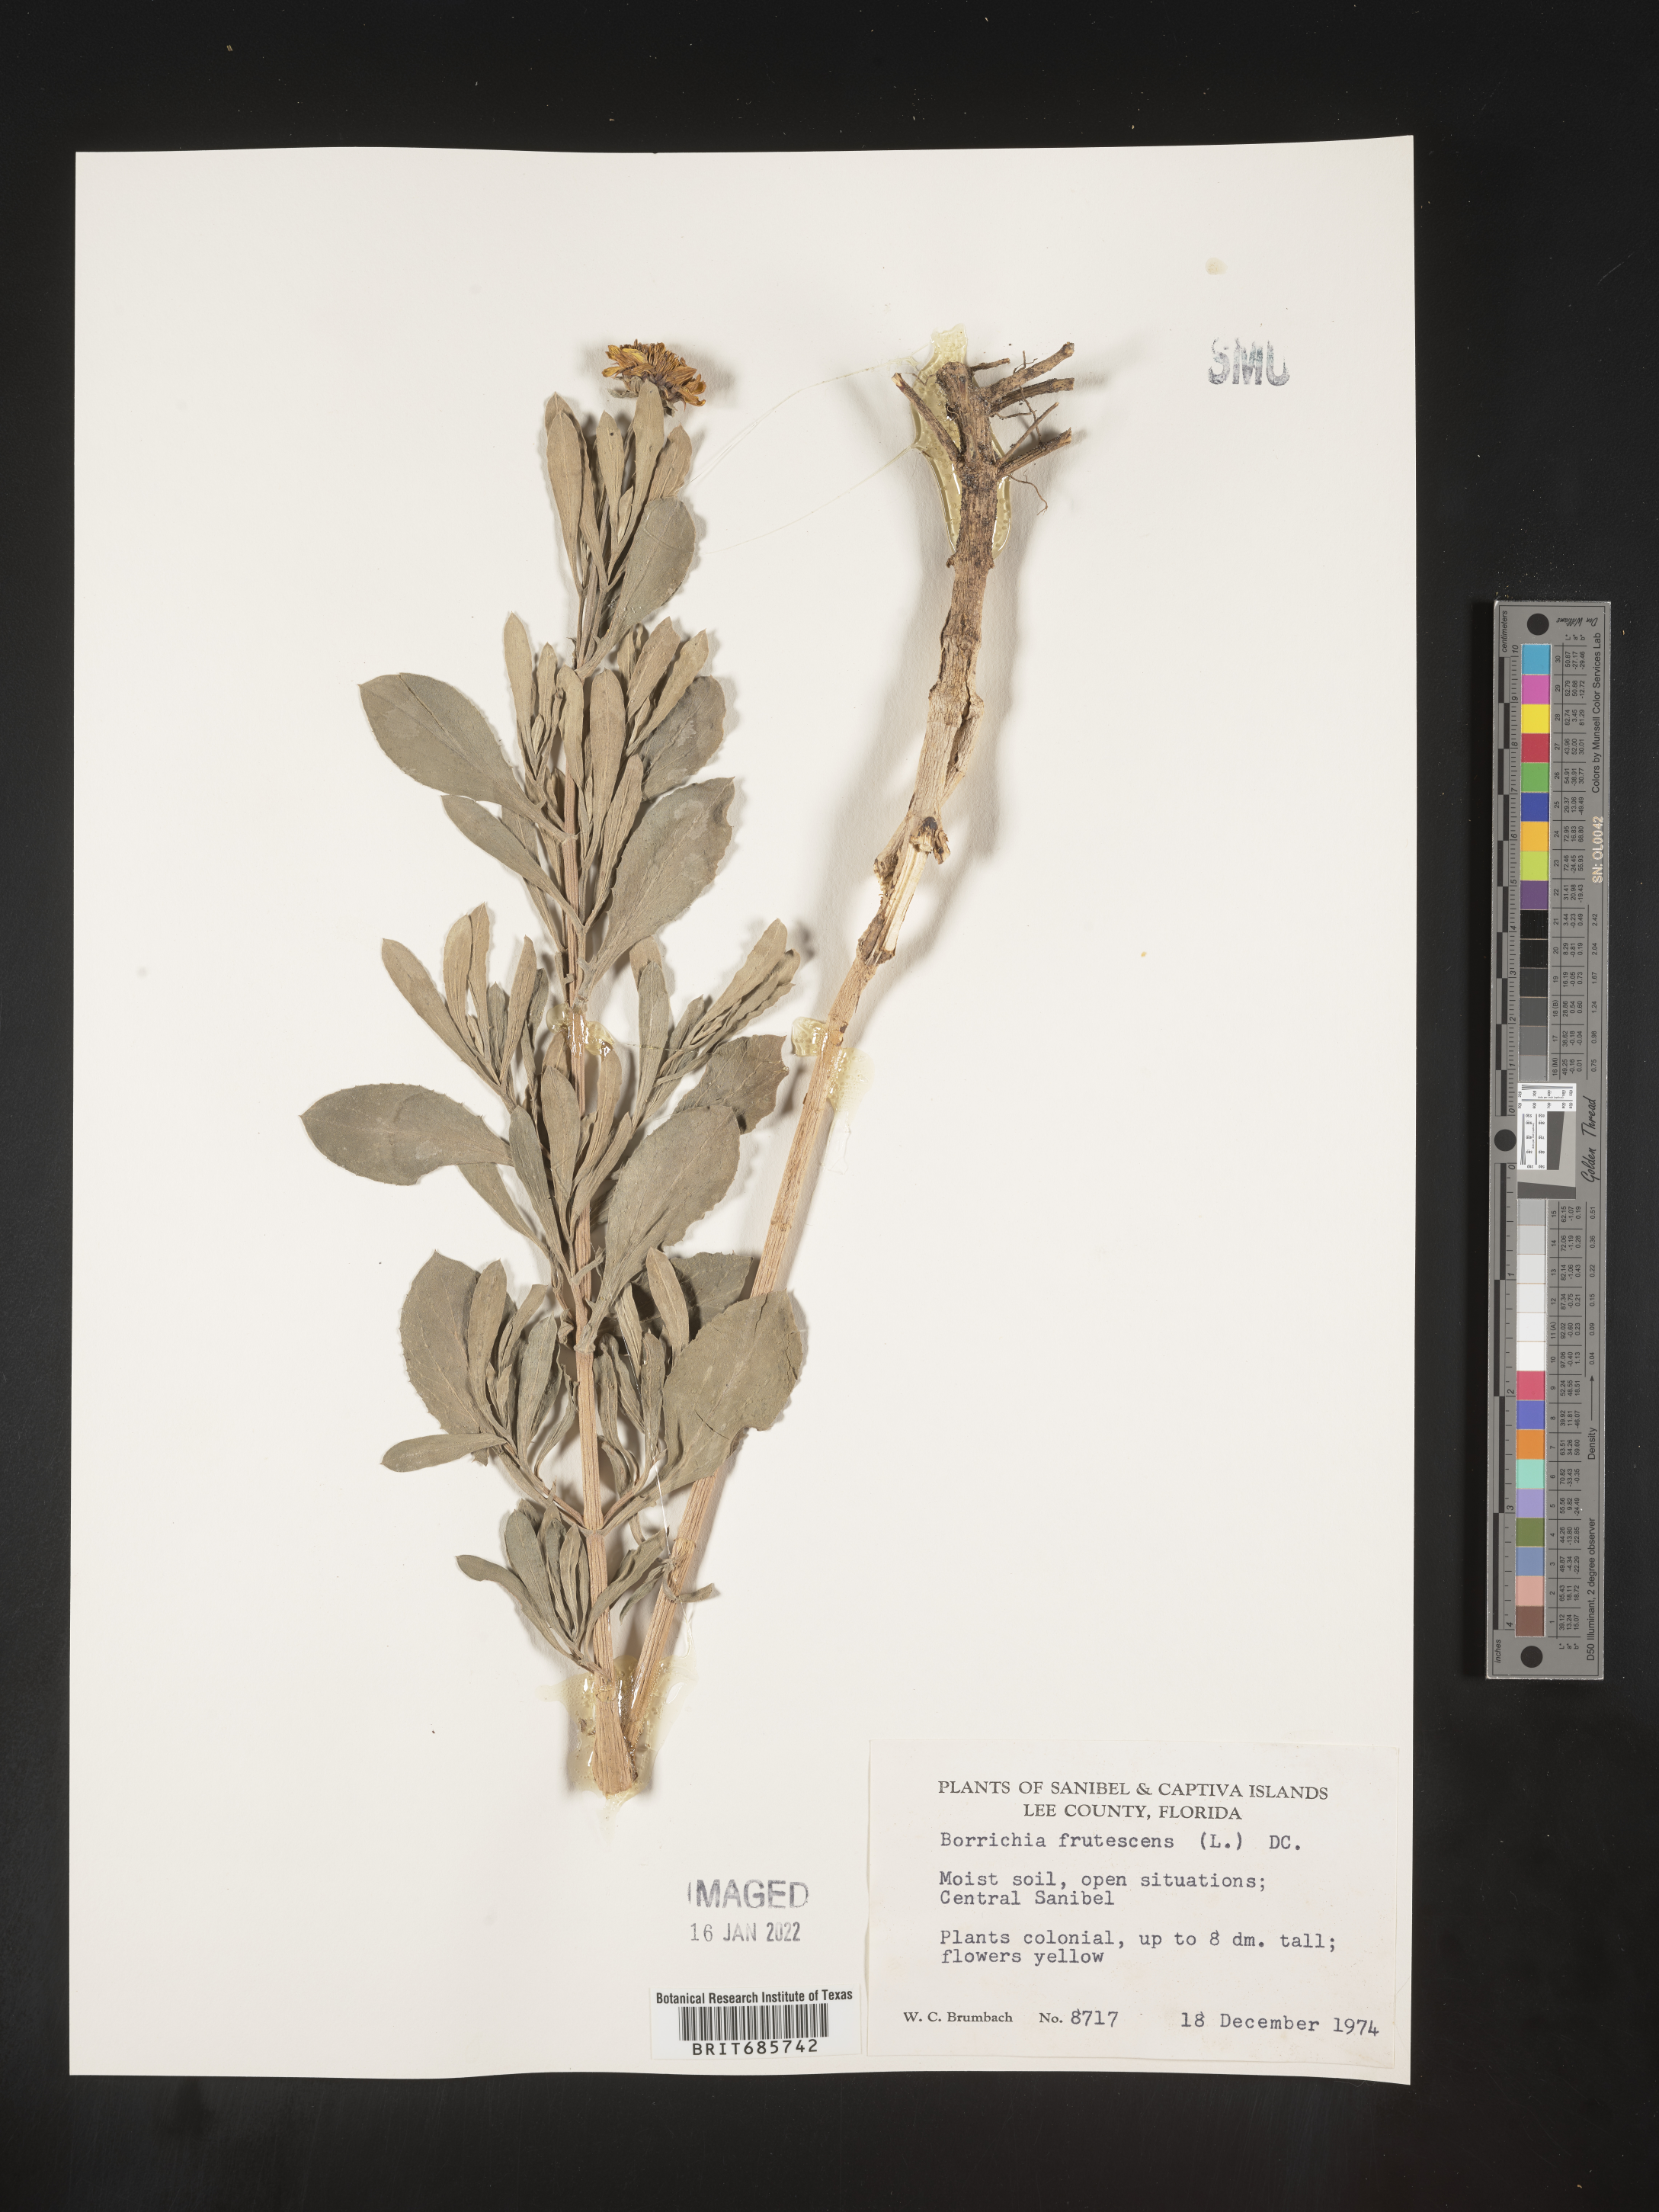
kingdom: Plantae
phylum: Tracheophyta
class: Magnoliopsida
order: Asterales
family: Asteraceae
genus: Borrichia
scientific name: Borrichia frutescens
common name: Sea oxeye
